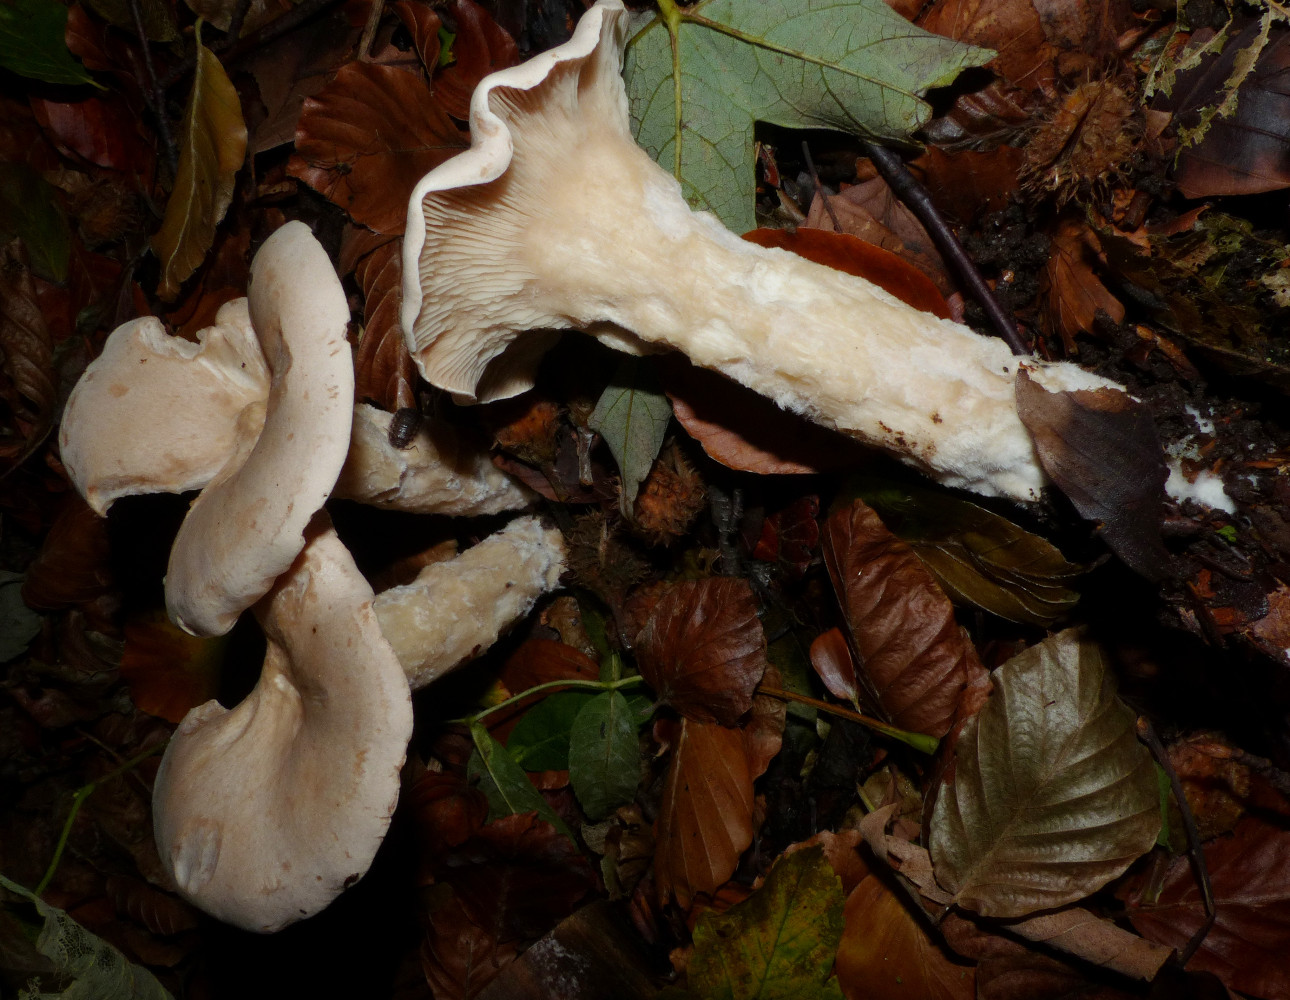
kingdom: Fungi
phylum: Basidiomycota
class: Agaricomycetes
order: Agaricales
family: Tricholomataceae
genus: Infundibulicybe
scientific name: Infundibulicybe geotropa
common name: stor tragthat
